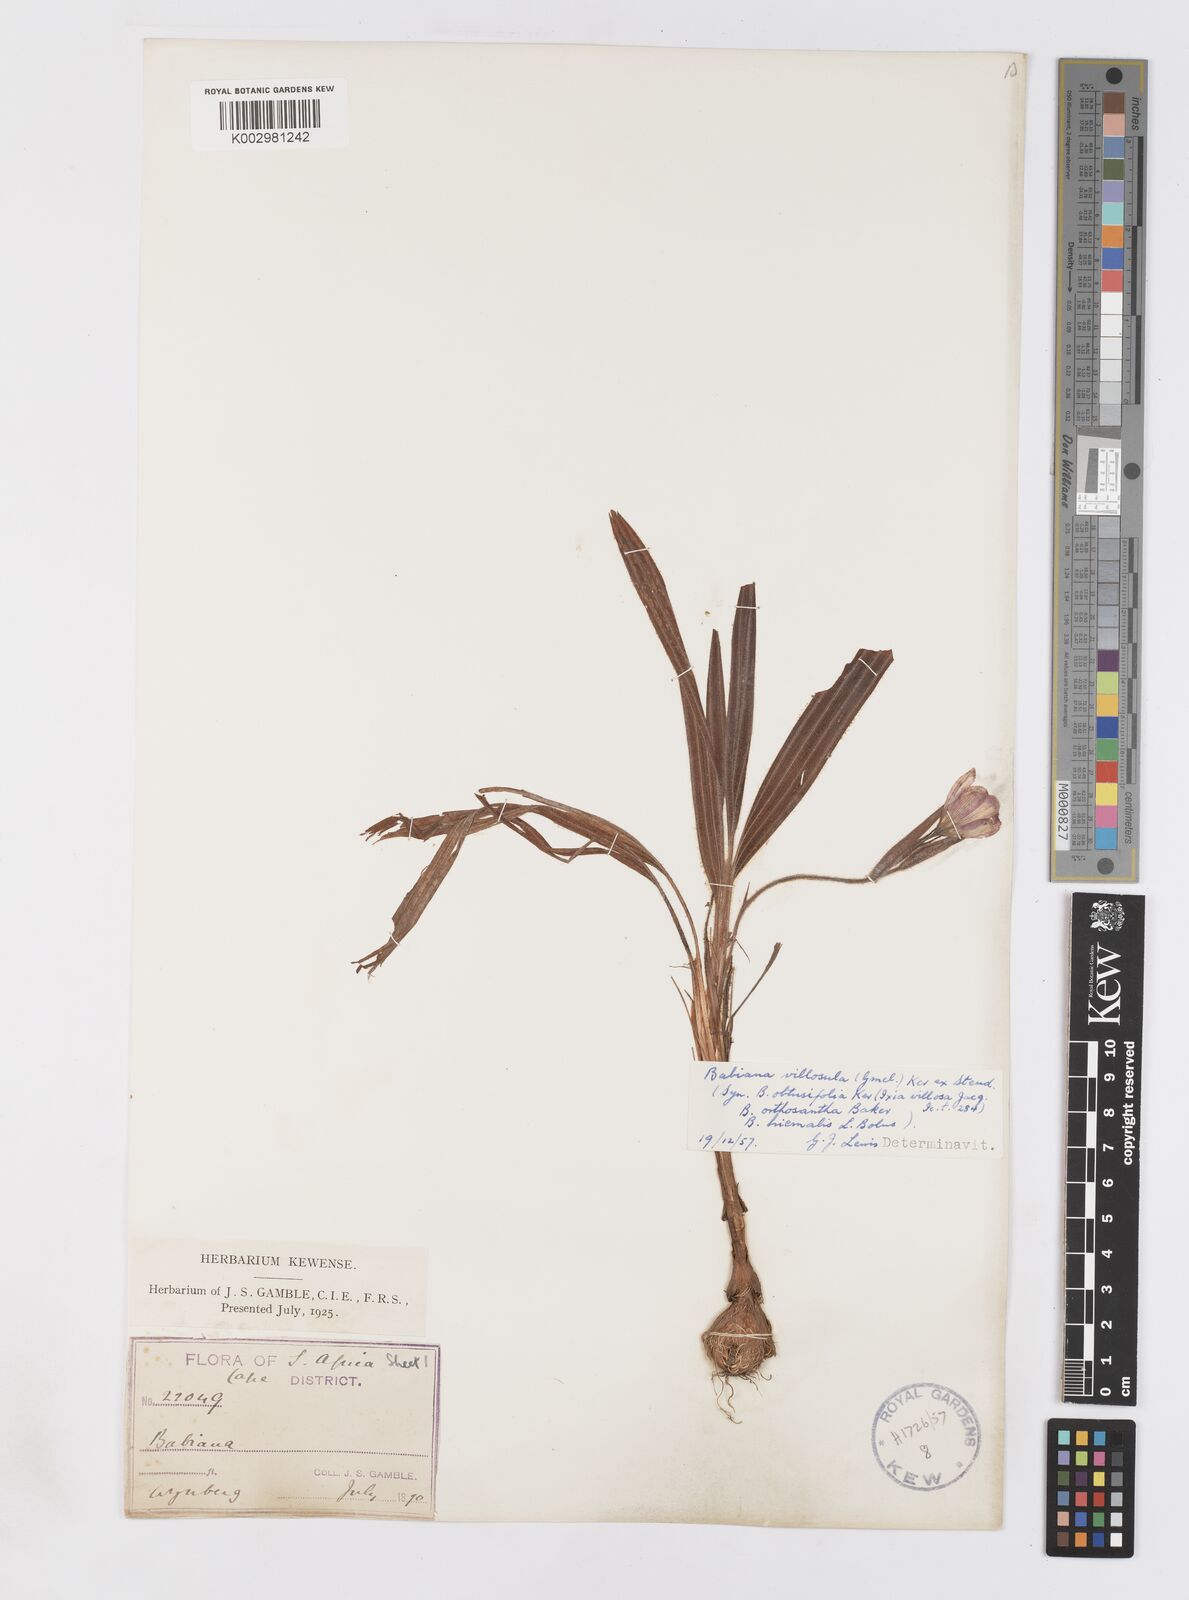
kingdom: Plantae
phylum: Tracheophyta
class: Liliopsida
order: Asparagales
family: Iridaceae
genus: Babiana
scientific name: Babiana villosula
